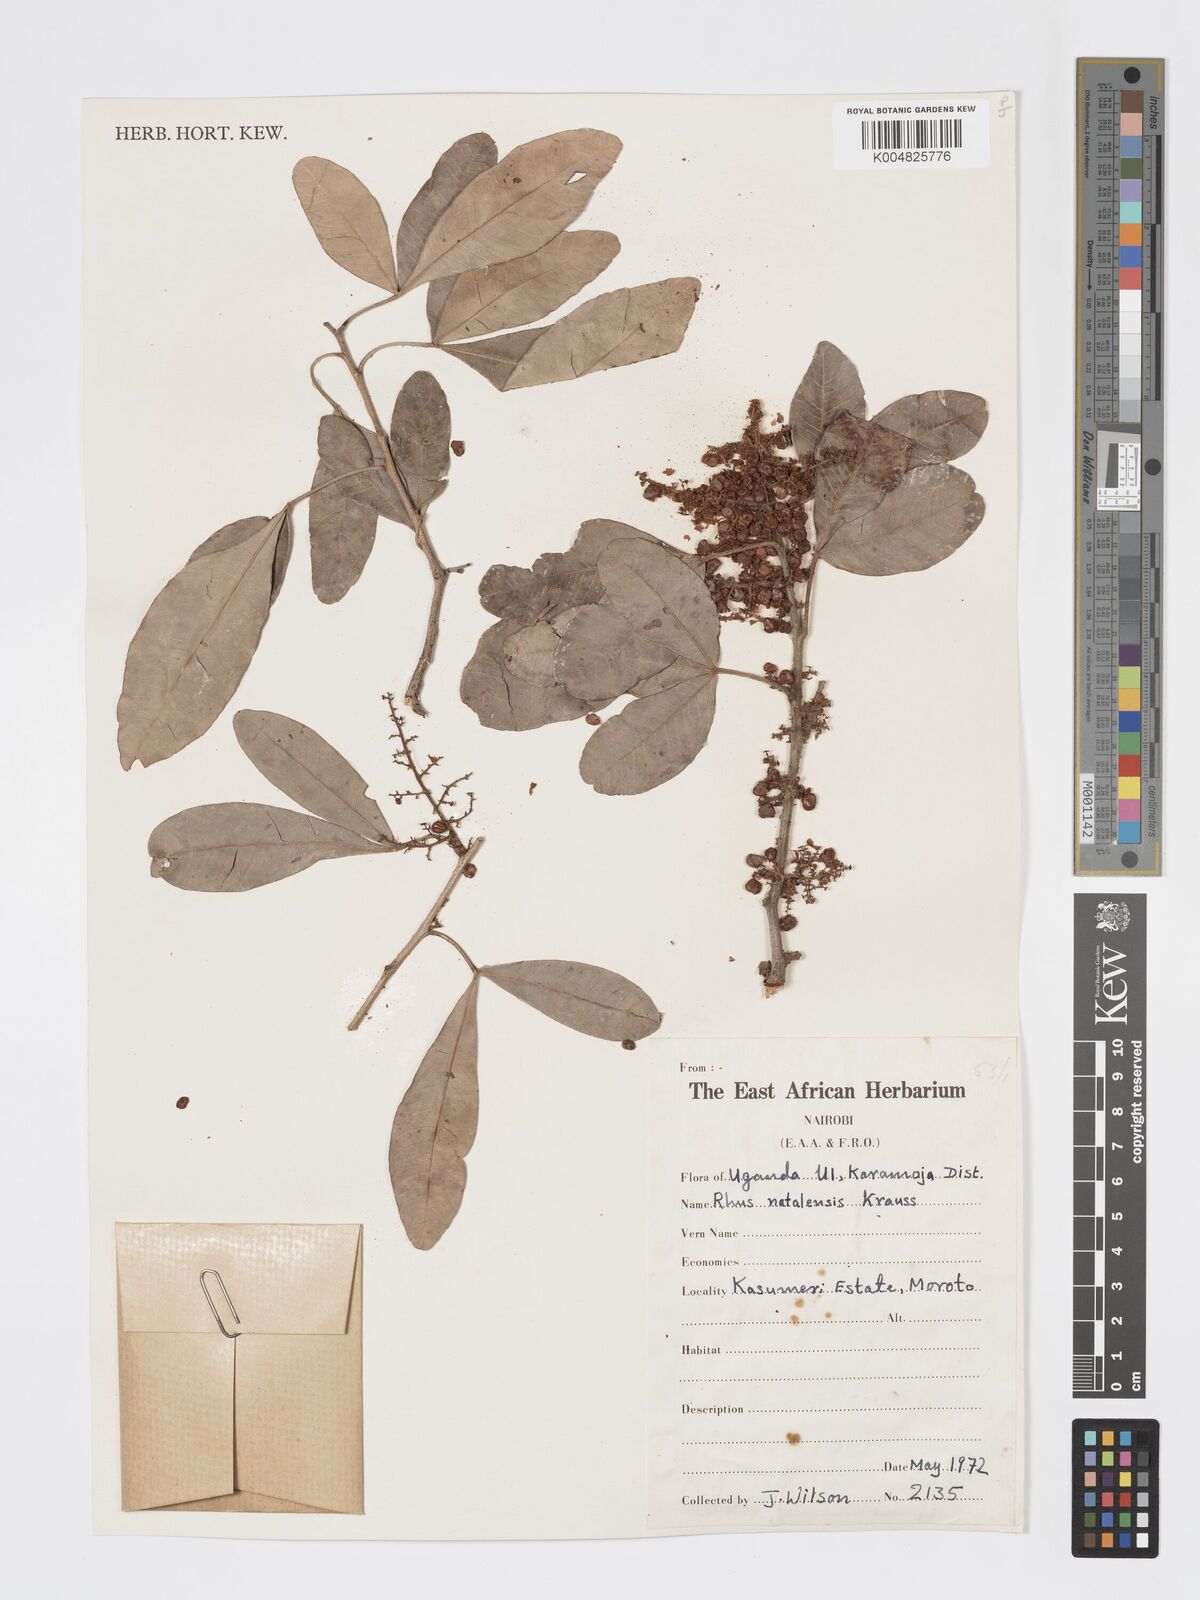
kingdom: Plantae
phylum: Tracheophyta
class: Magnoliopsida
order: Sapindales
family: Anacardiaceae
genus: Searsia
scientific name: Searsia natalensis
